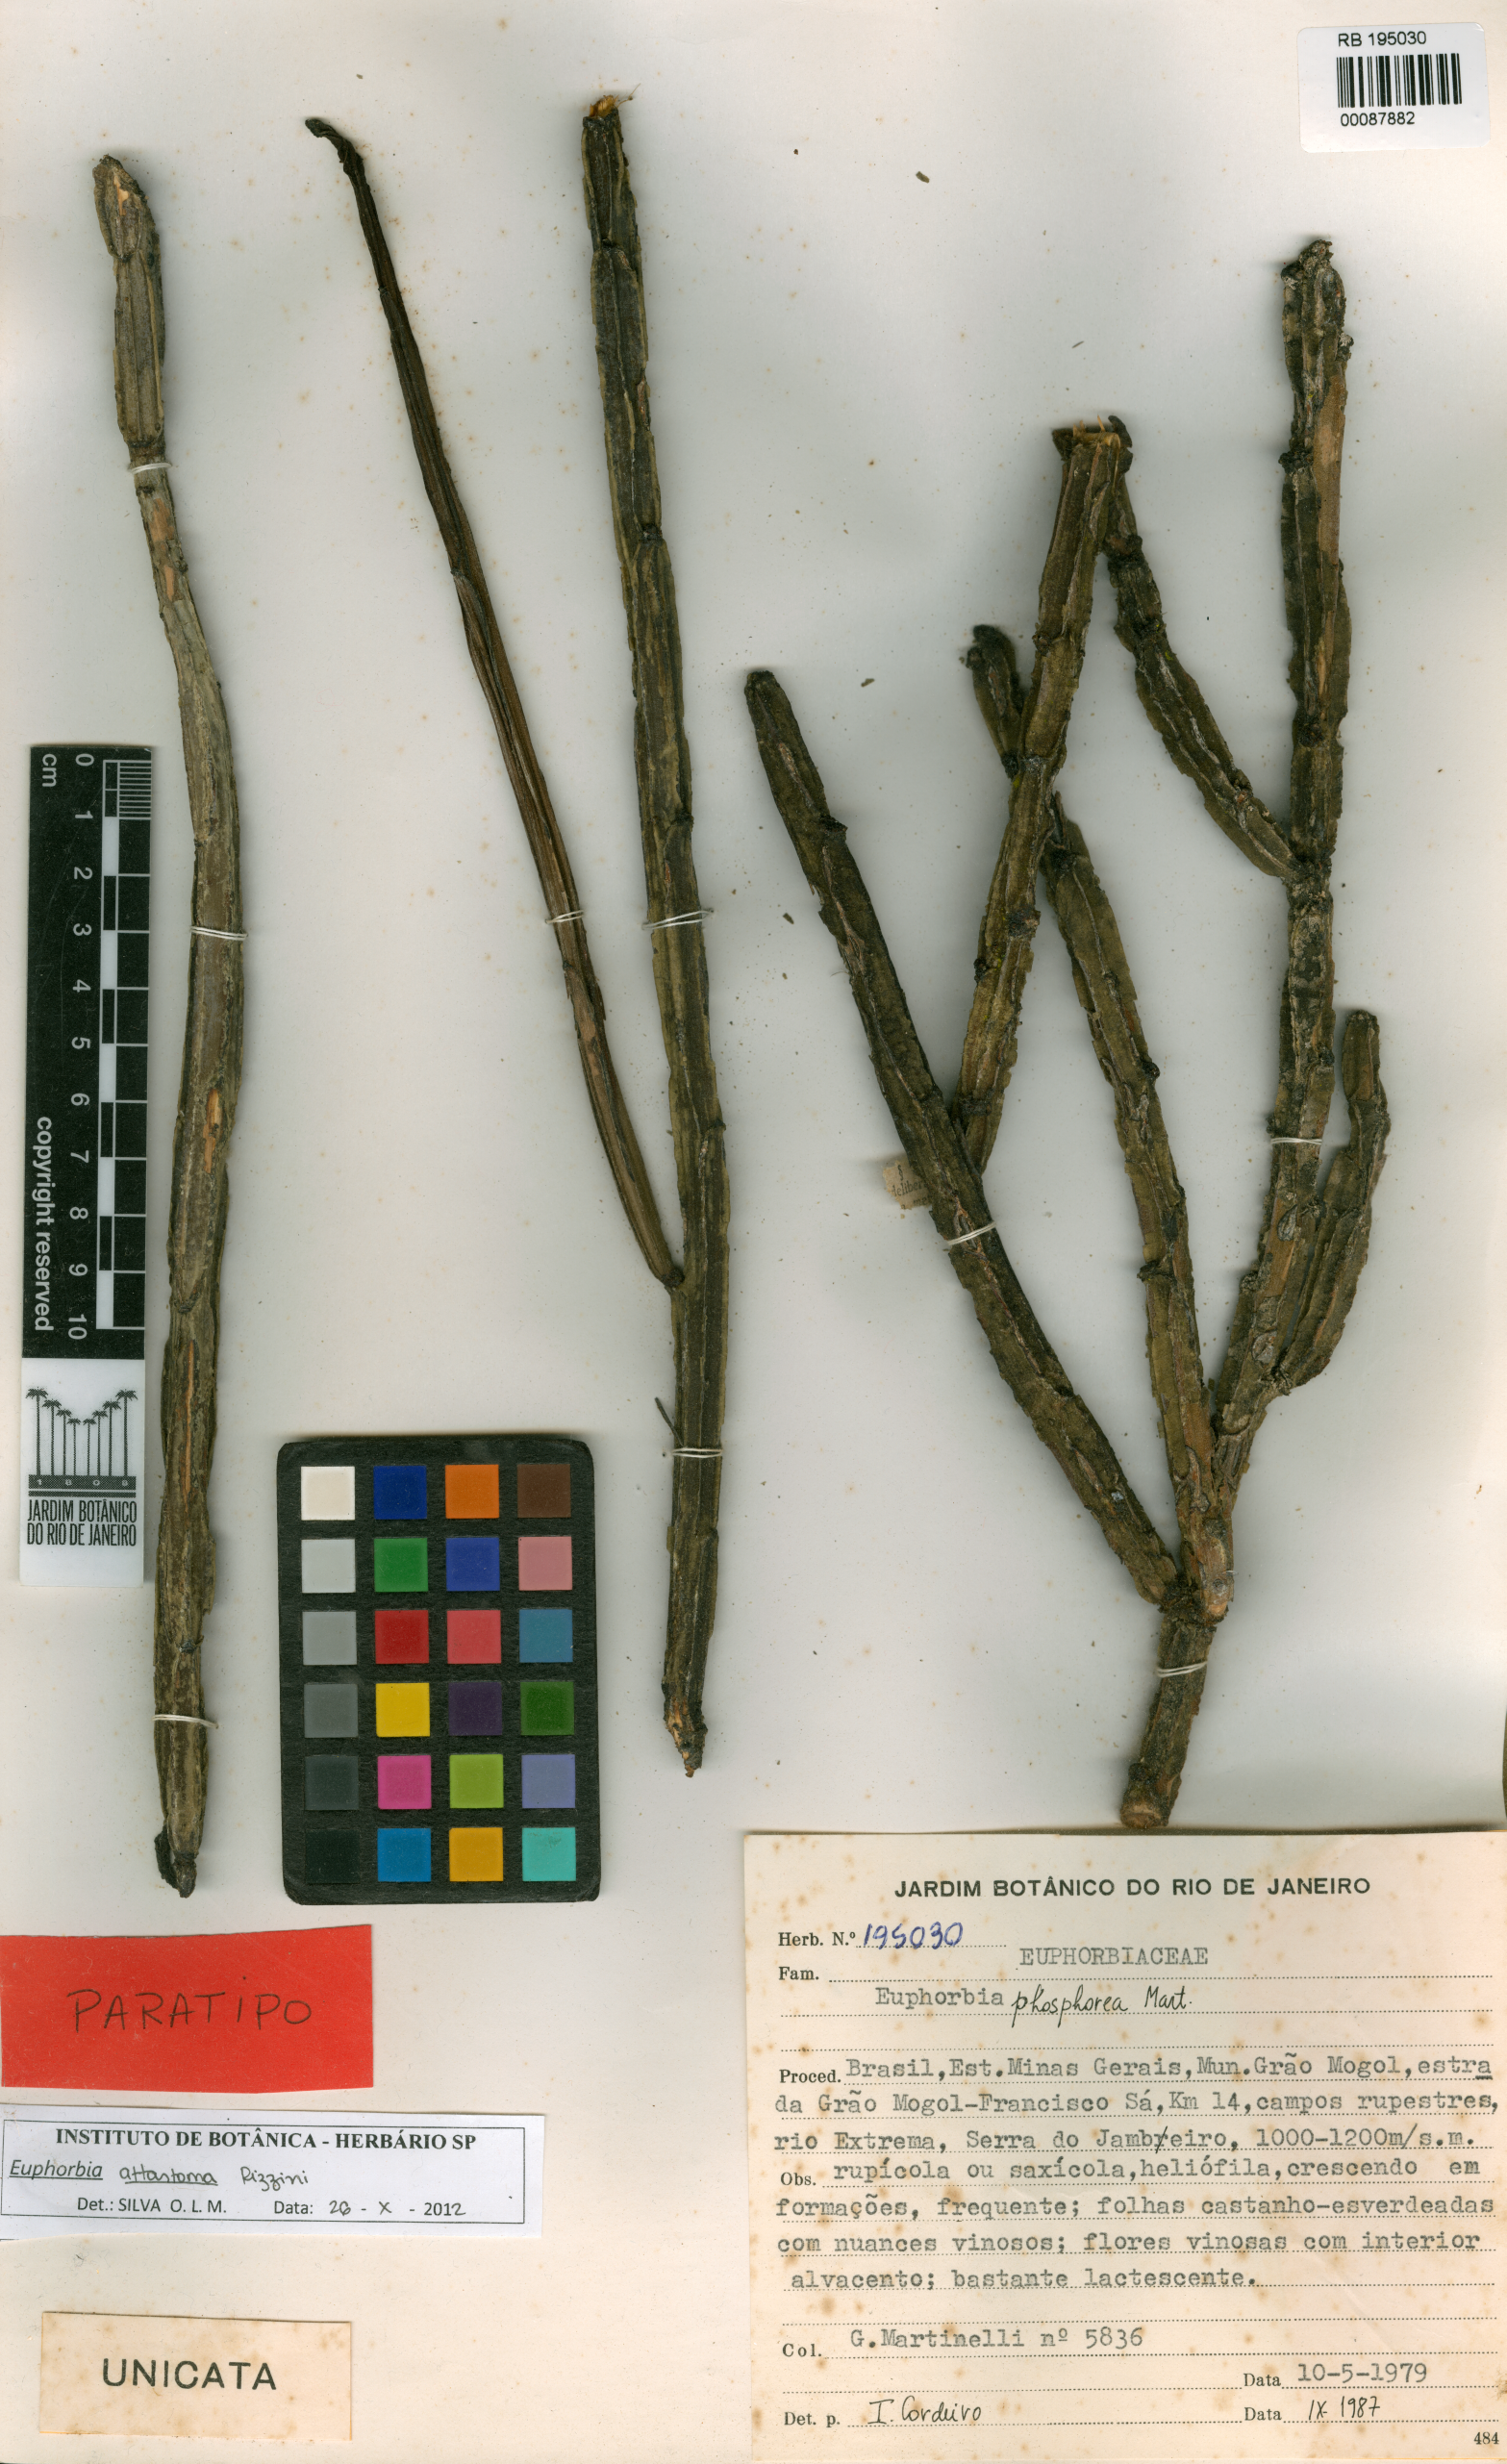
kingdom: Plantae
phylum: Tracheophyta
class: Magnoliopsida
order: Malpighiales
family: Euphorbiaceae
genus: Euphorbia
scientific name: Euphorbia attastoma
